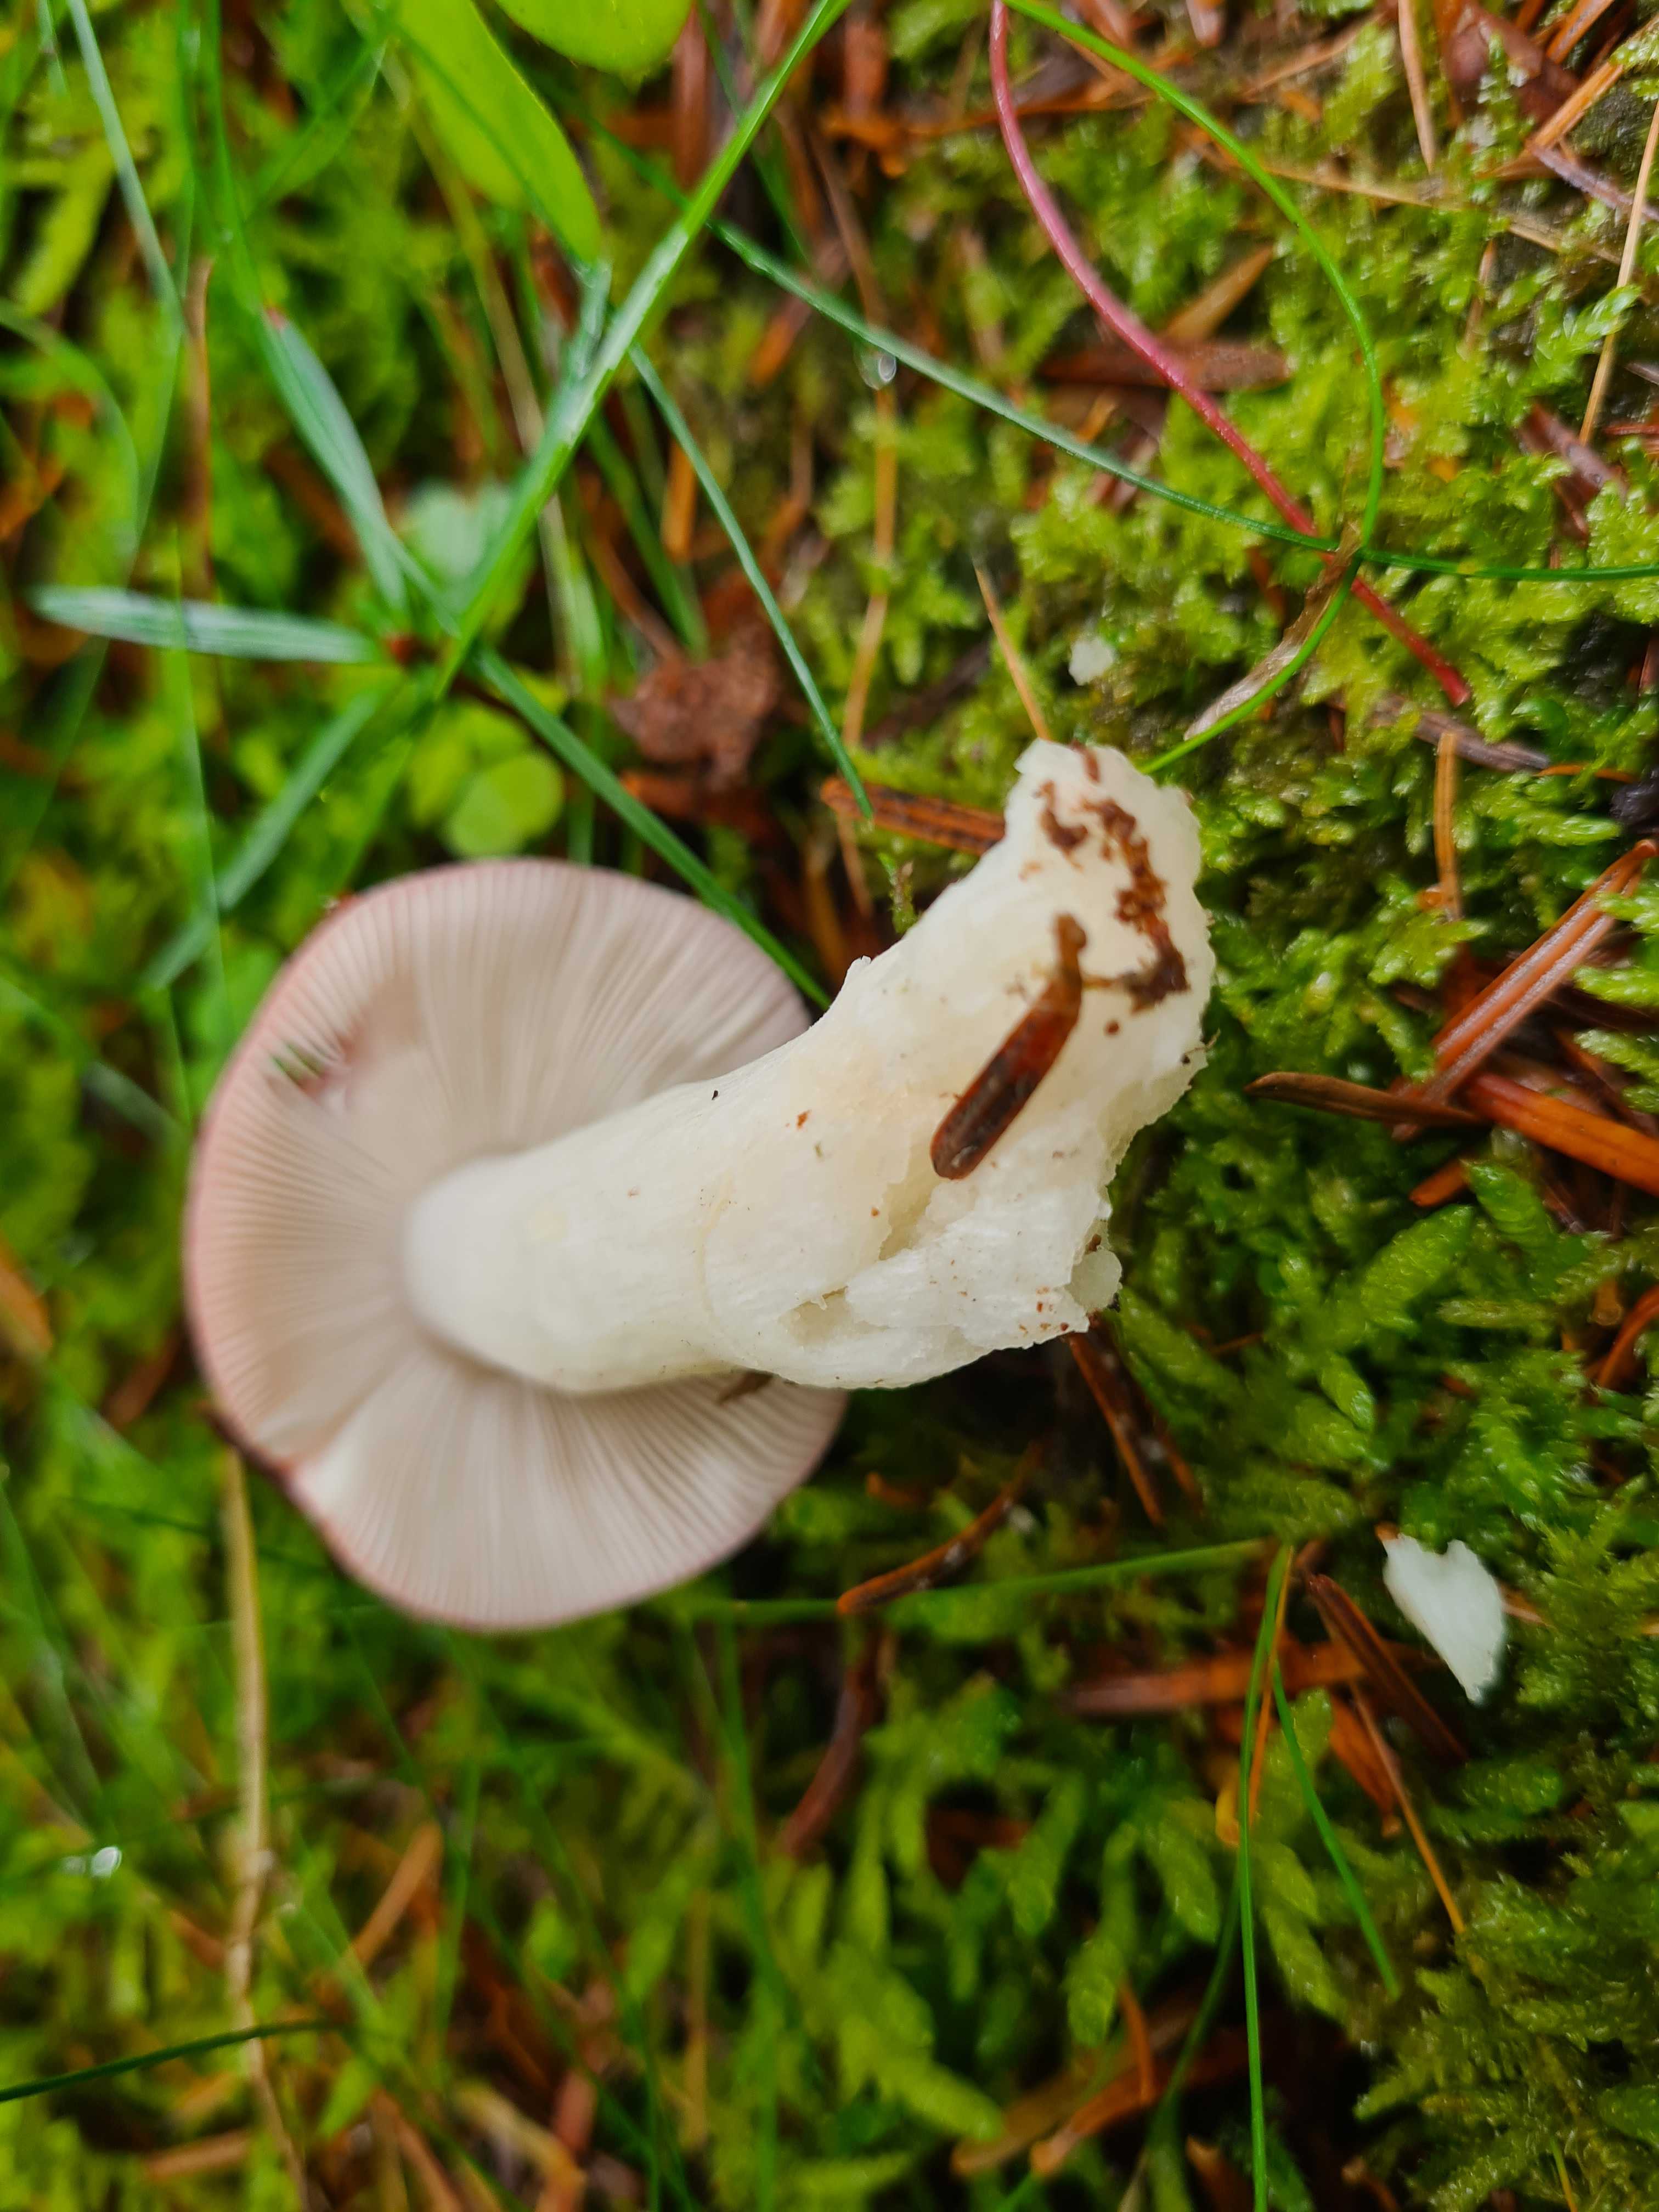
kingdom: Fungi
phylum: Basidiomycota
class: Agaricomycetes
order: Russulales
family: Russulaceae
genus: Russula
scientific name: Russula emetica
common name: stor gift-skørhat
